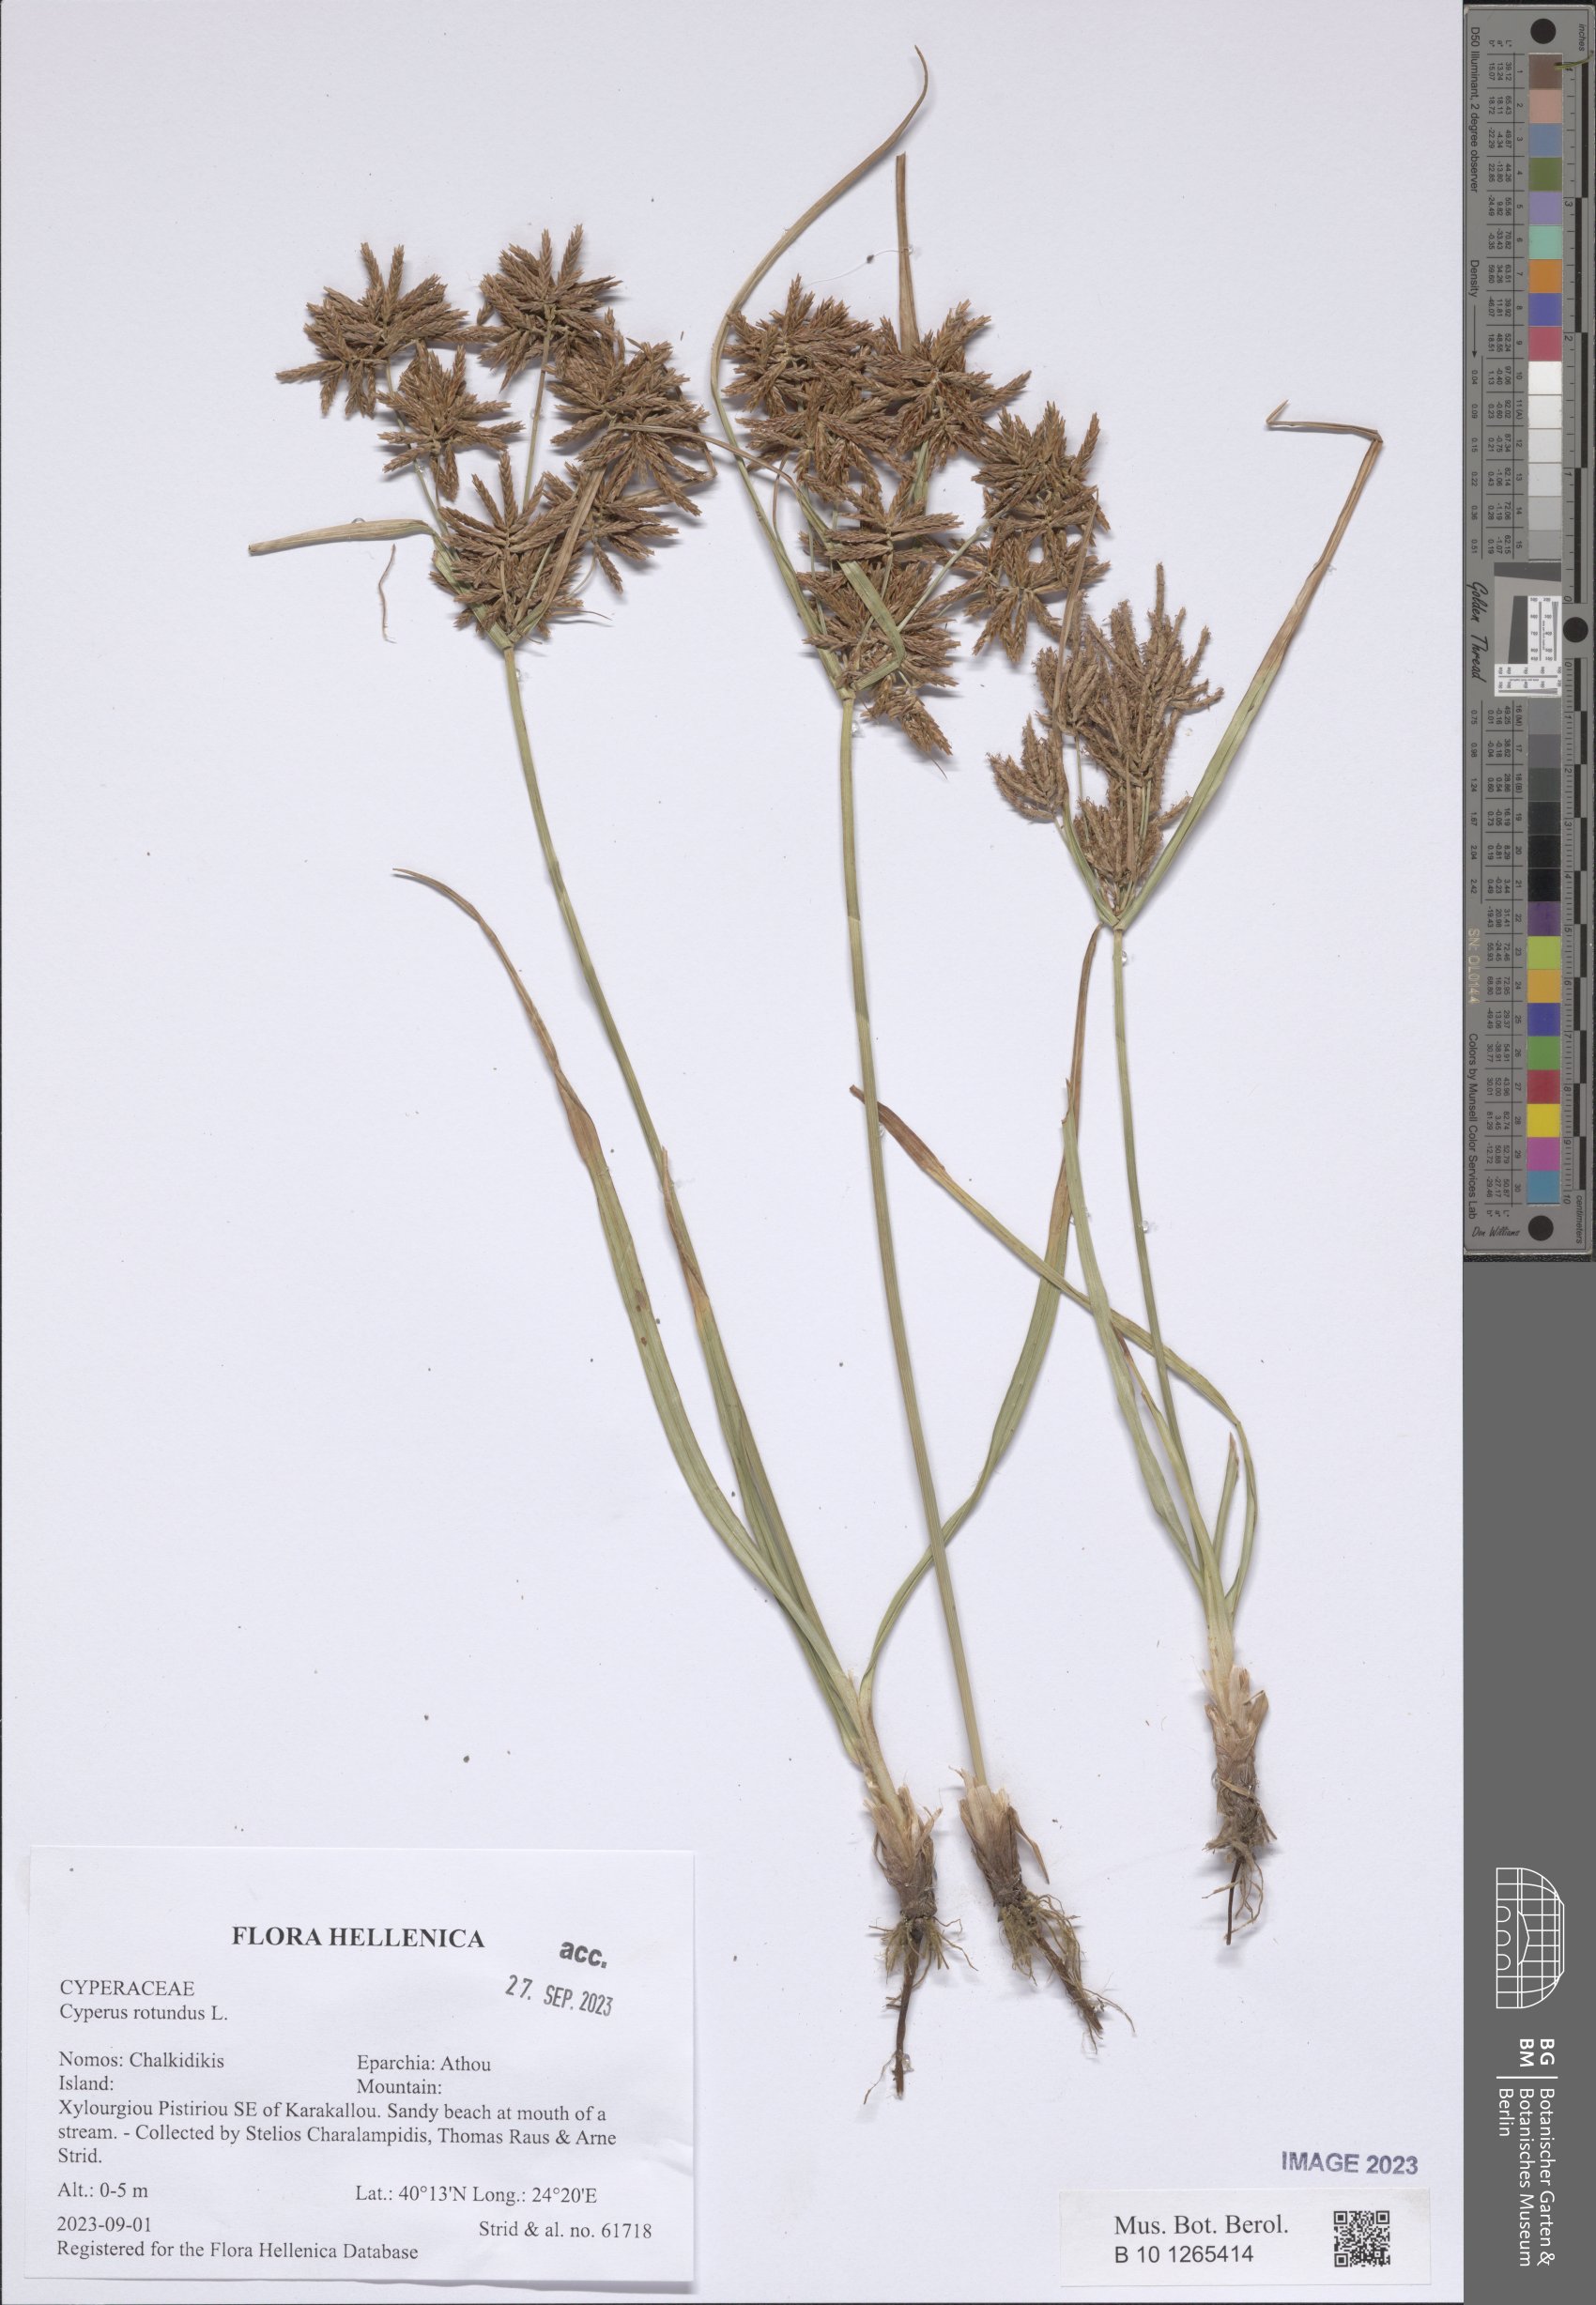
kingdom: Plantae
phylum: Tracheophyta
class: Liliopsida
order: Poales
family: Cyperaceae
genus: Cyperus
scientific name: Cyperus rotundus
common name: Nutgrass
